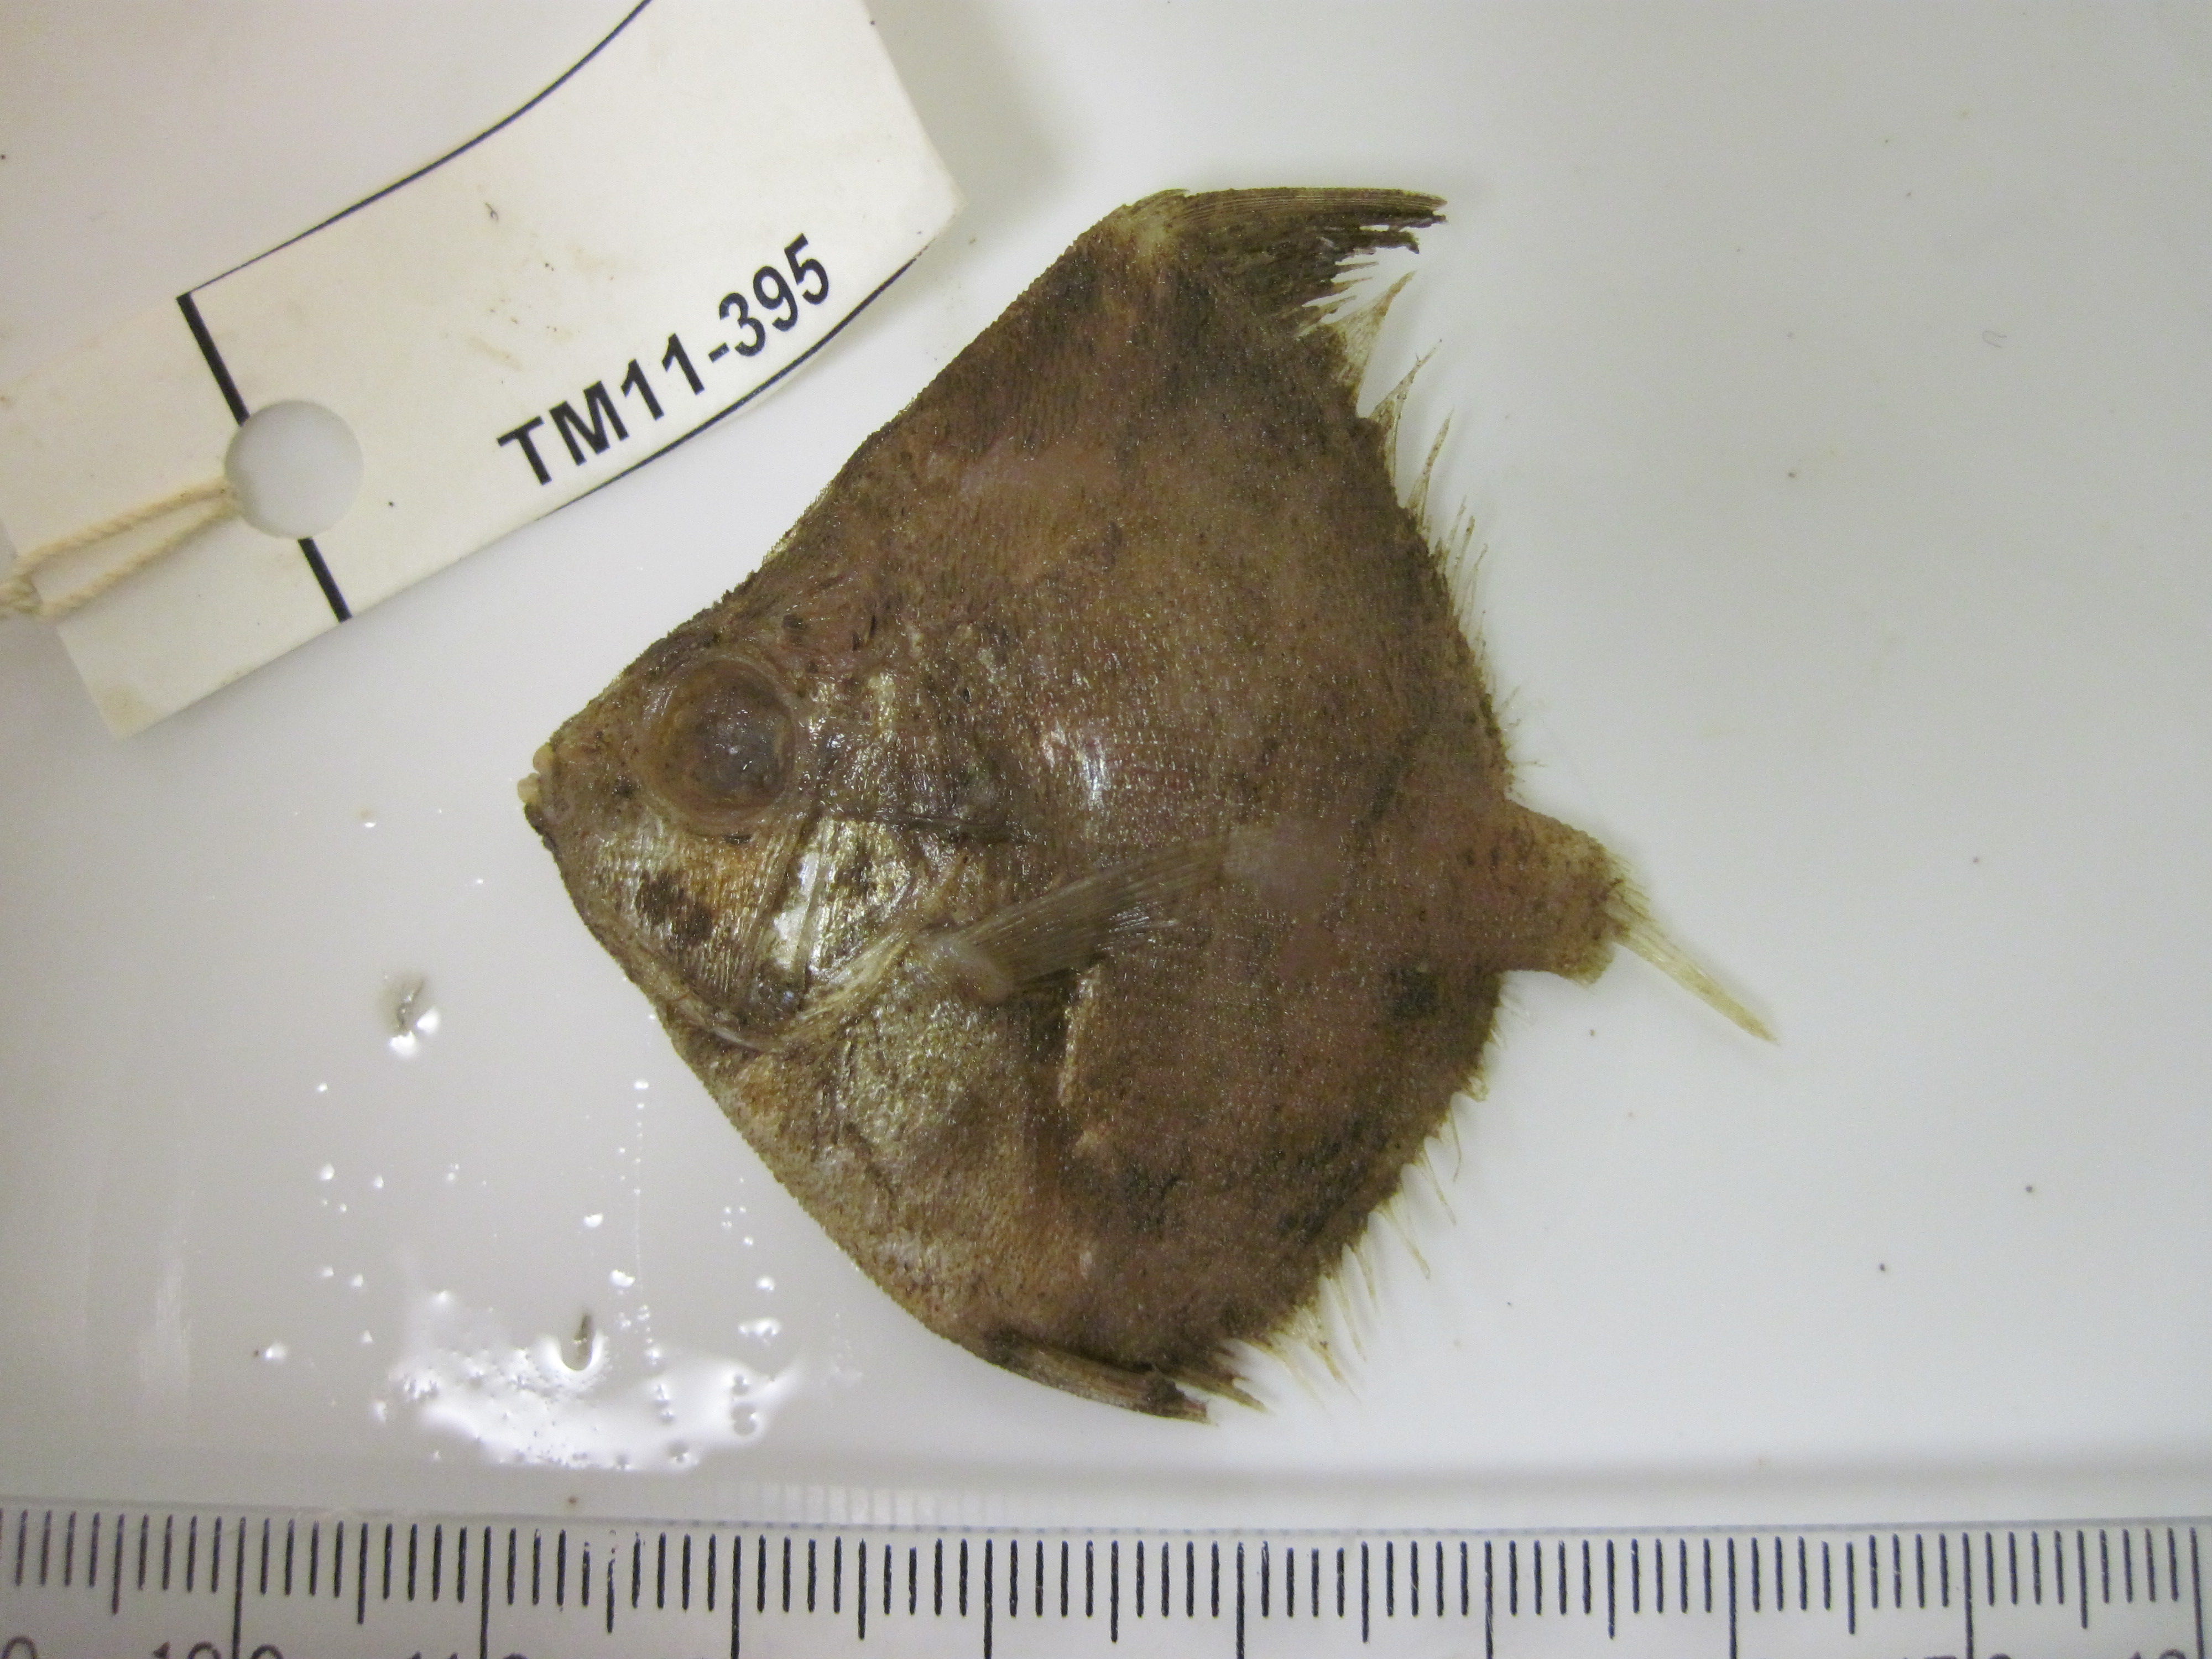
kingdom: Animalia
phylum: Chordata
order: Perciformes
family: Caproidae
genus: Antigonia
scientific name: Antigonia capros
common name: Deepbody boarfish
